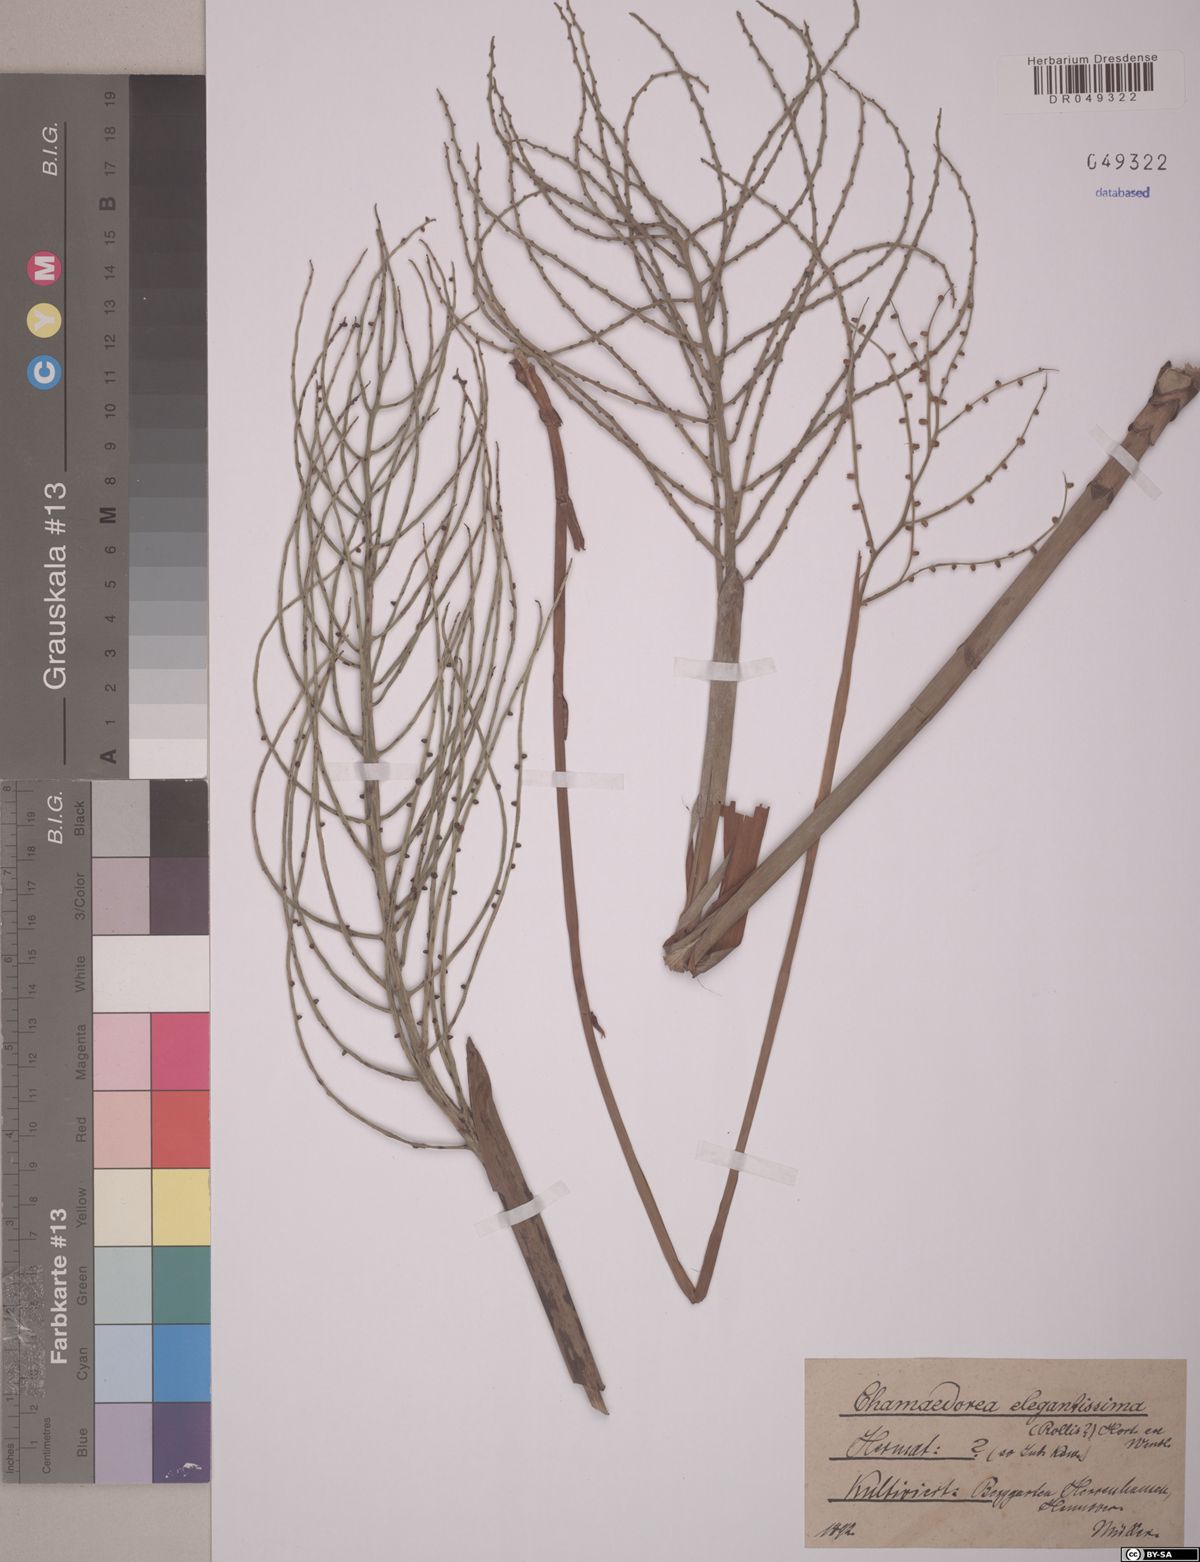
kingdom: Plantae
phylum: Tracheophyta
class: Liliopsida
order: Arecales
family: Arecaceae
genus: Chamaedorea
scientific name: Chamaedorea elegantissima
